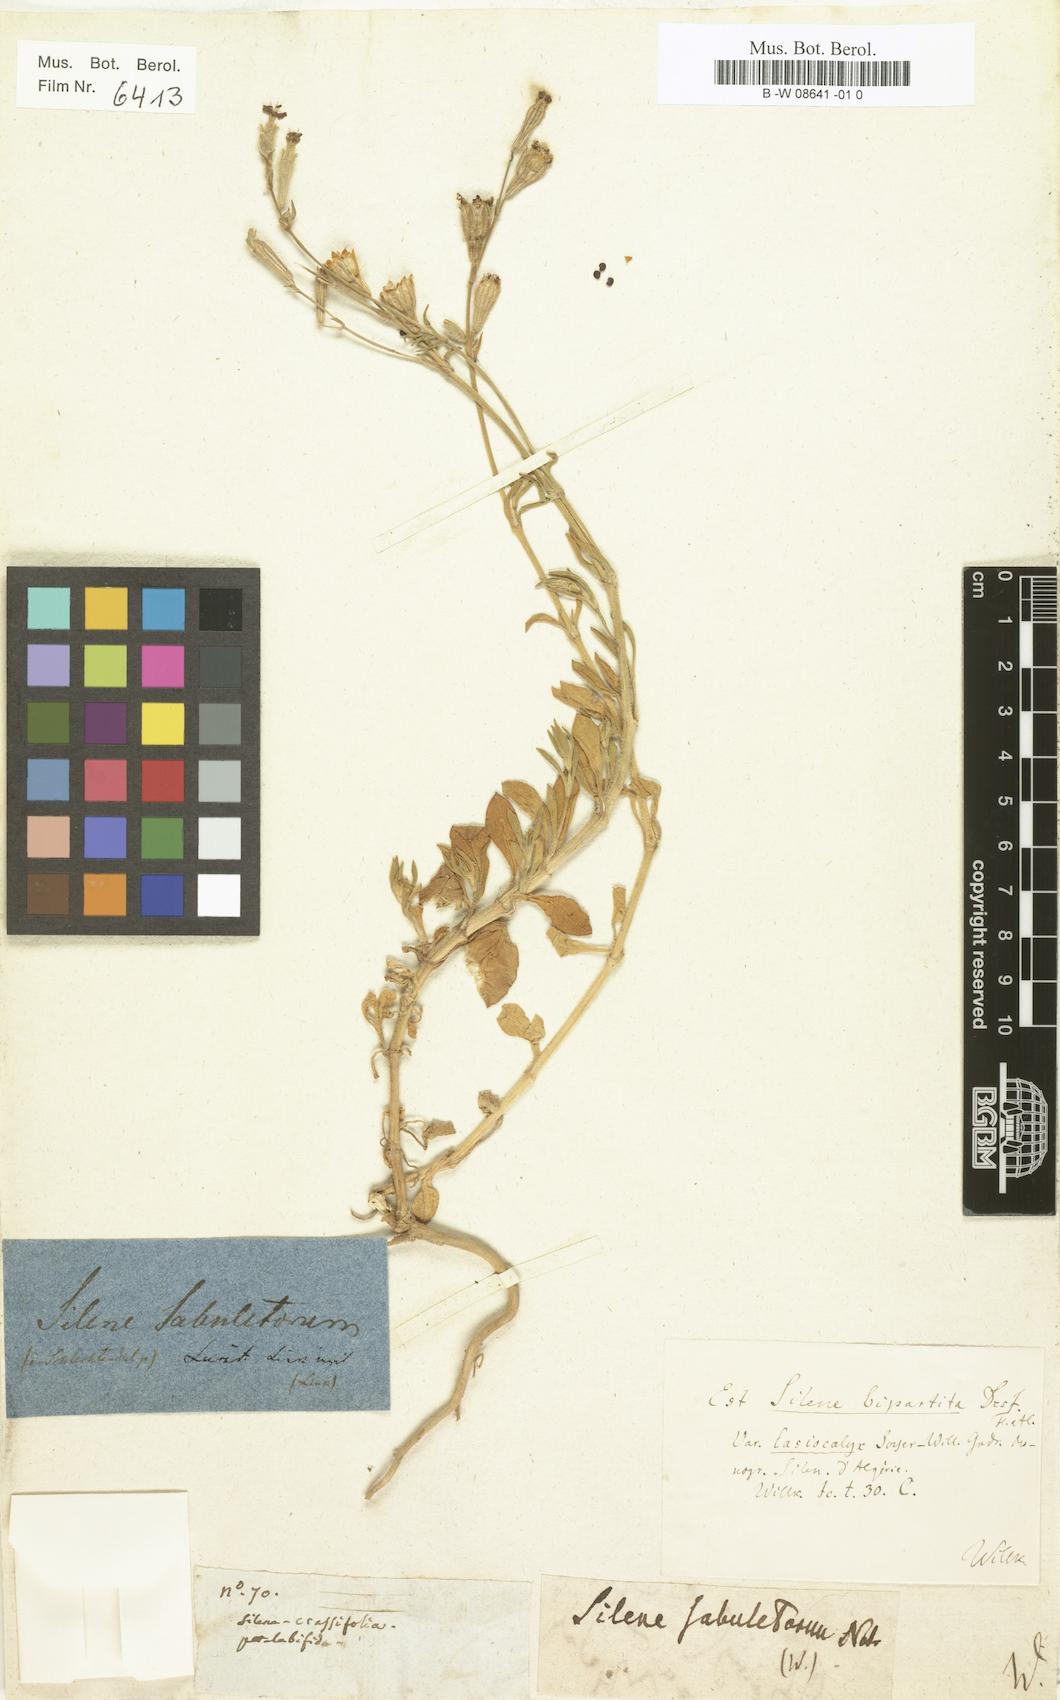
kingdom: Plantae
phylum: Tracheophyta
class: Magnoliopsida
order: Caryophyllales
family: Caryophyllaceae
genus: Silene
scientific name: Silene
